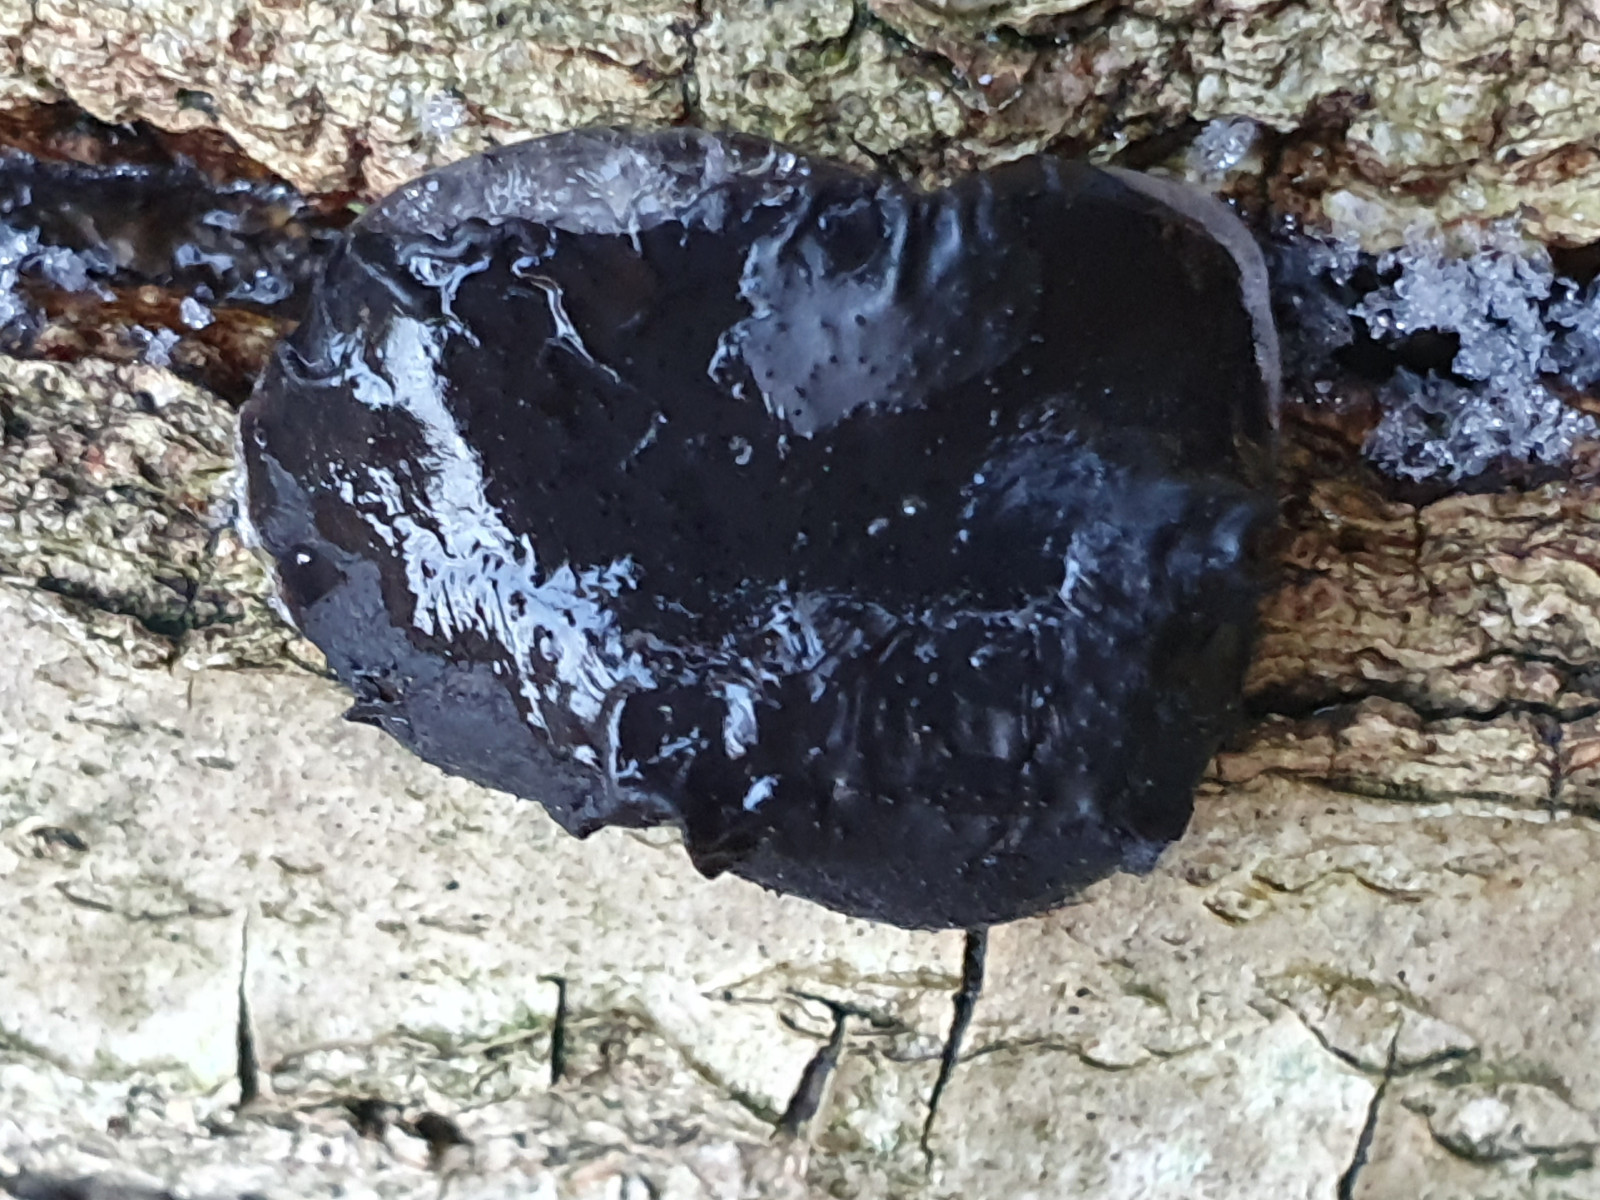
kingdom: Fungi
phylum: Basidiomycota
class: Agaricomycetes
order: Auriculariales
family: Auriculariaceae
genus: Exidia
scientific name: Exidia glandulosa
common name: ege-bævretop
